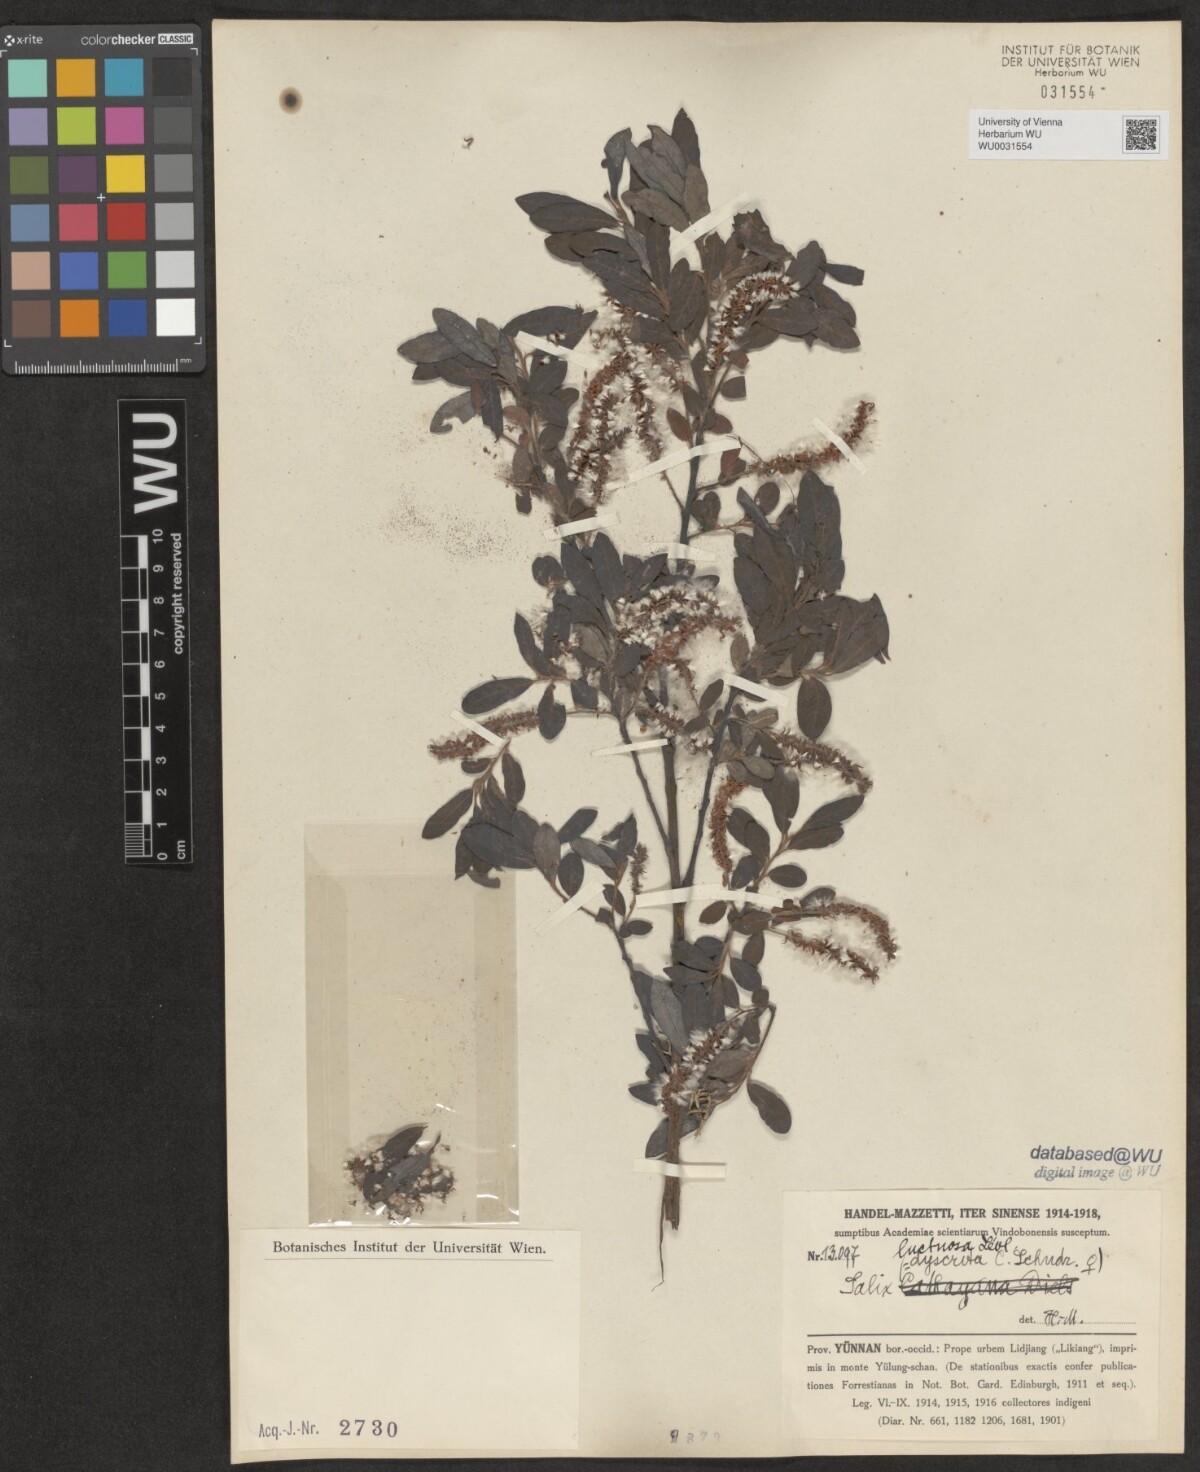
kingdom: Plantae
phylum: Tracheophyta
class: Magnoliopsida
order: Malpighiales
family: Salicaceae
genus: Salix
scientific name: Salix luctuosa
